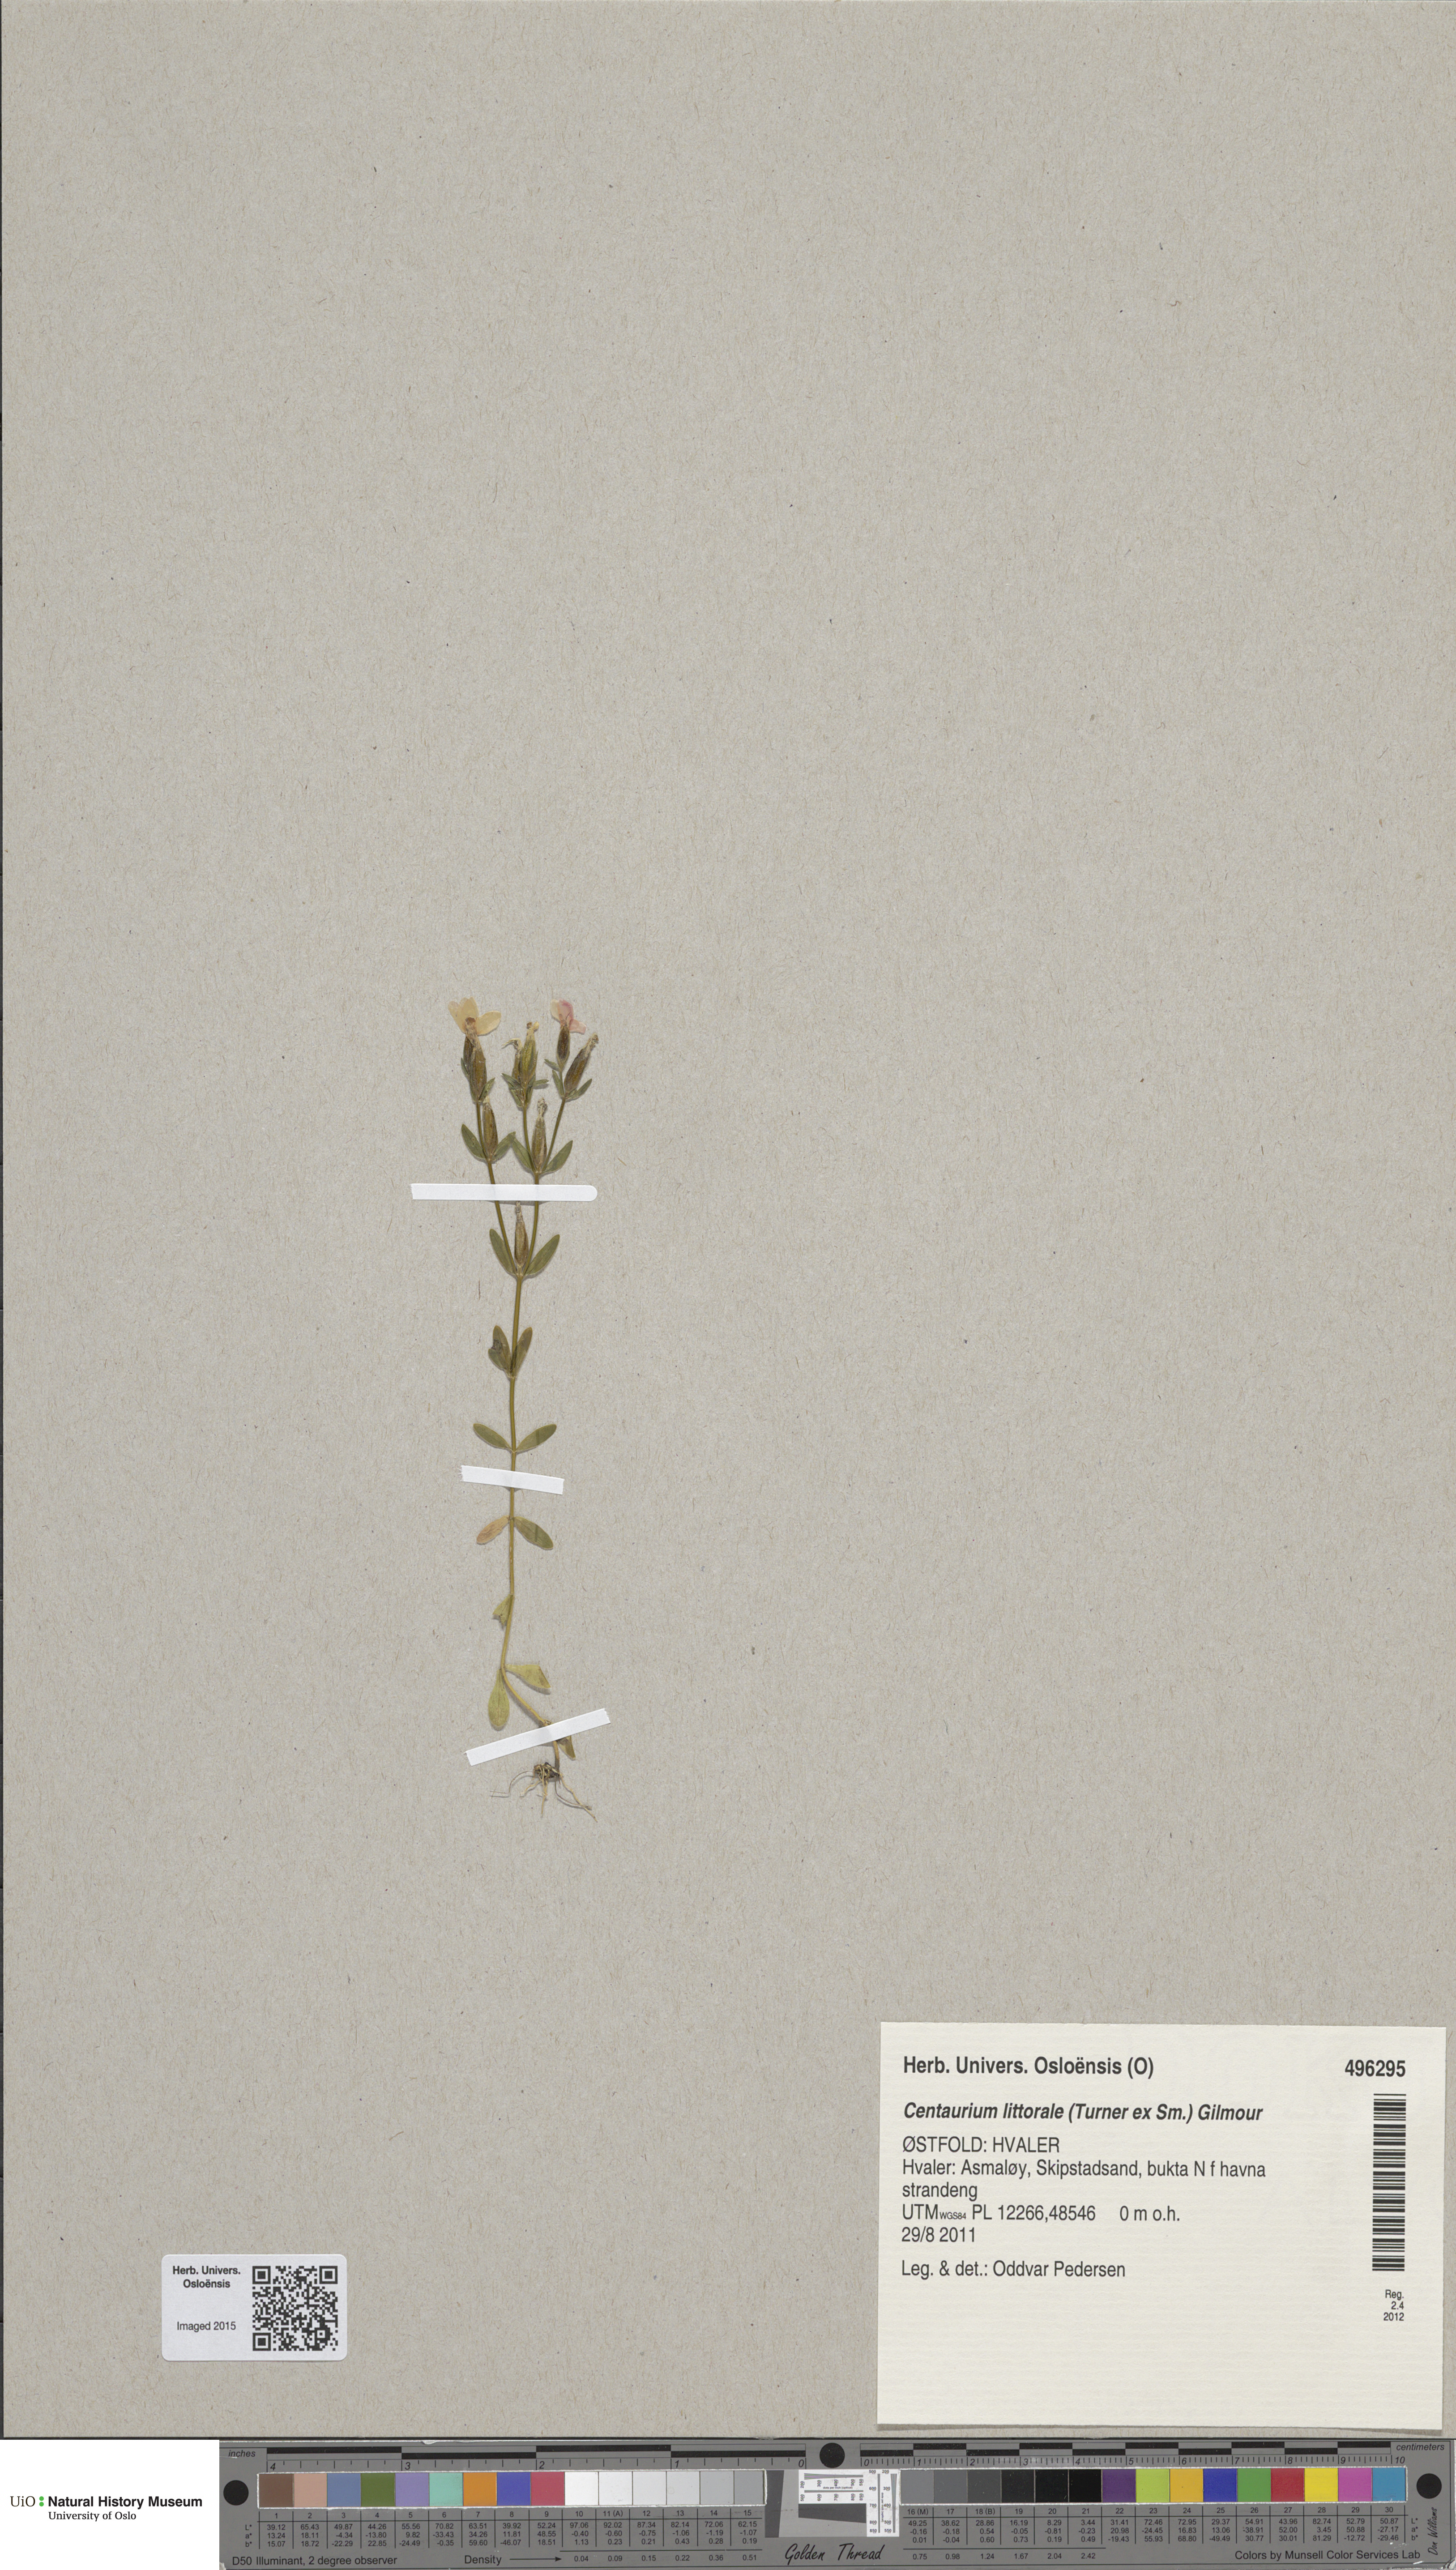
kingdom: Plantae
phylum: Tracheophyta
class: Magnoliopsida
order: Gentianales
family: Gentianaceae
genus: Centaurium
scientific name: Centaurium littorale
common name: Seaside centaury
